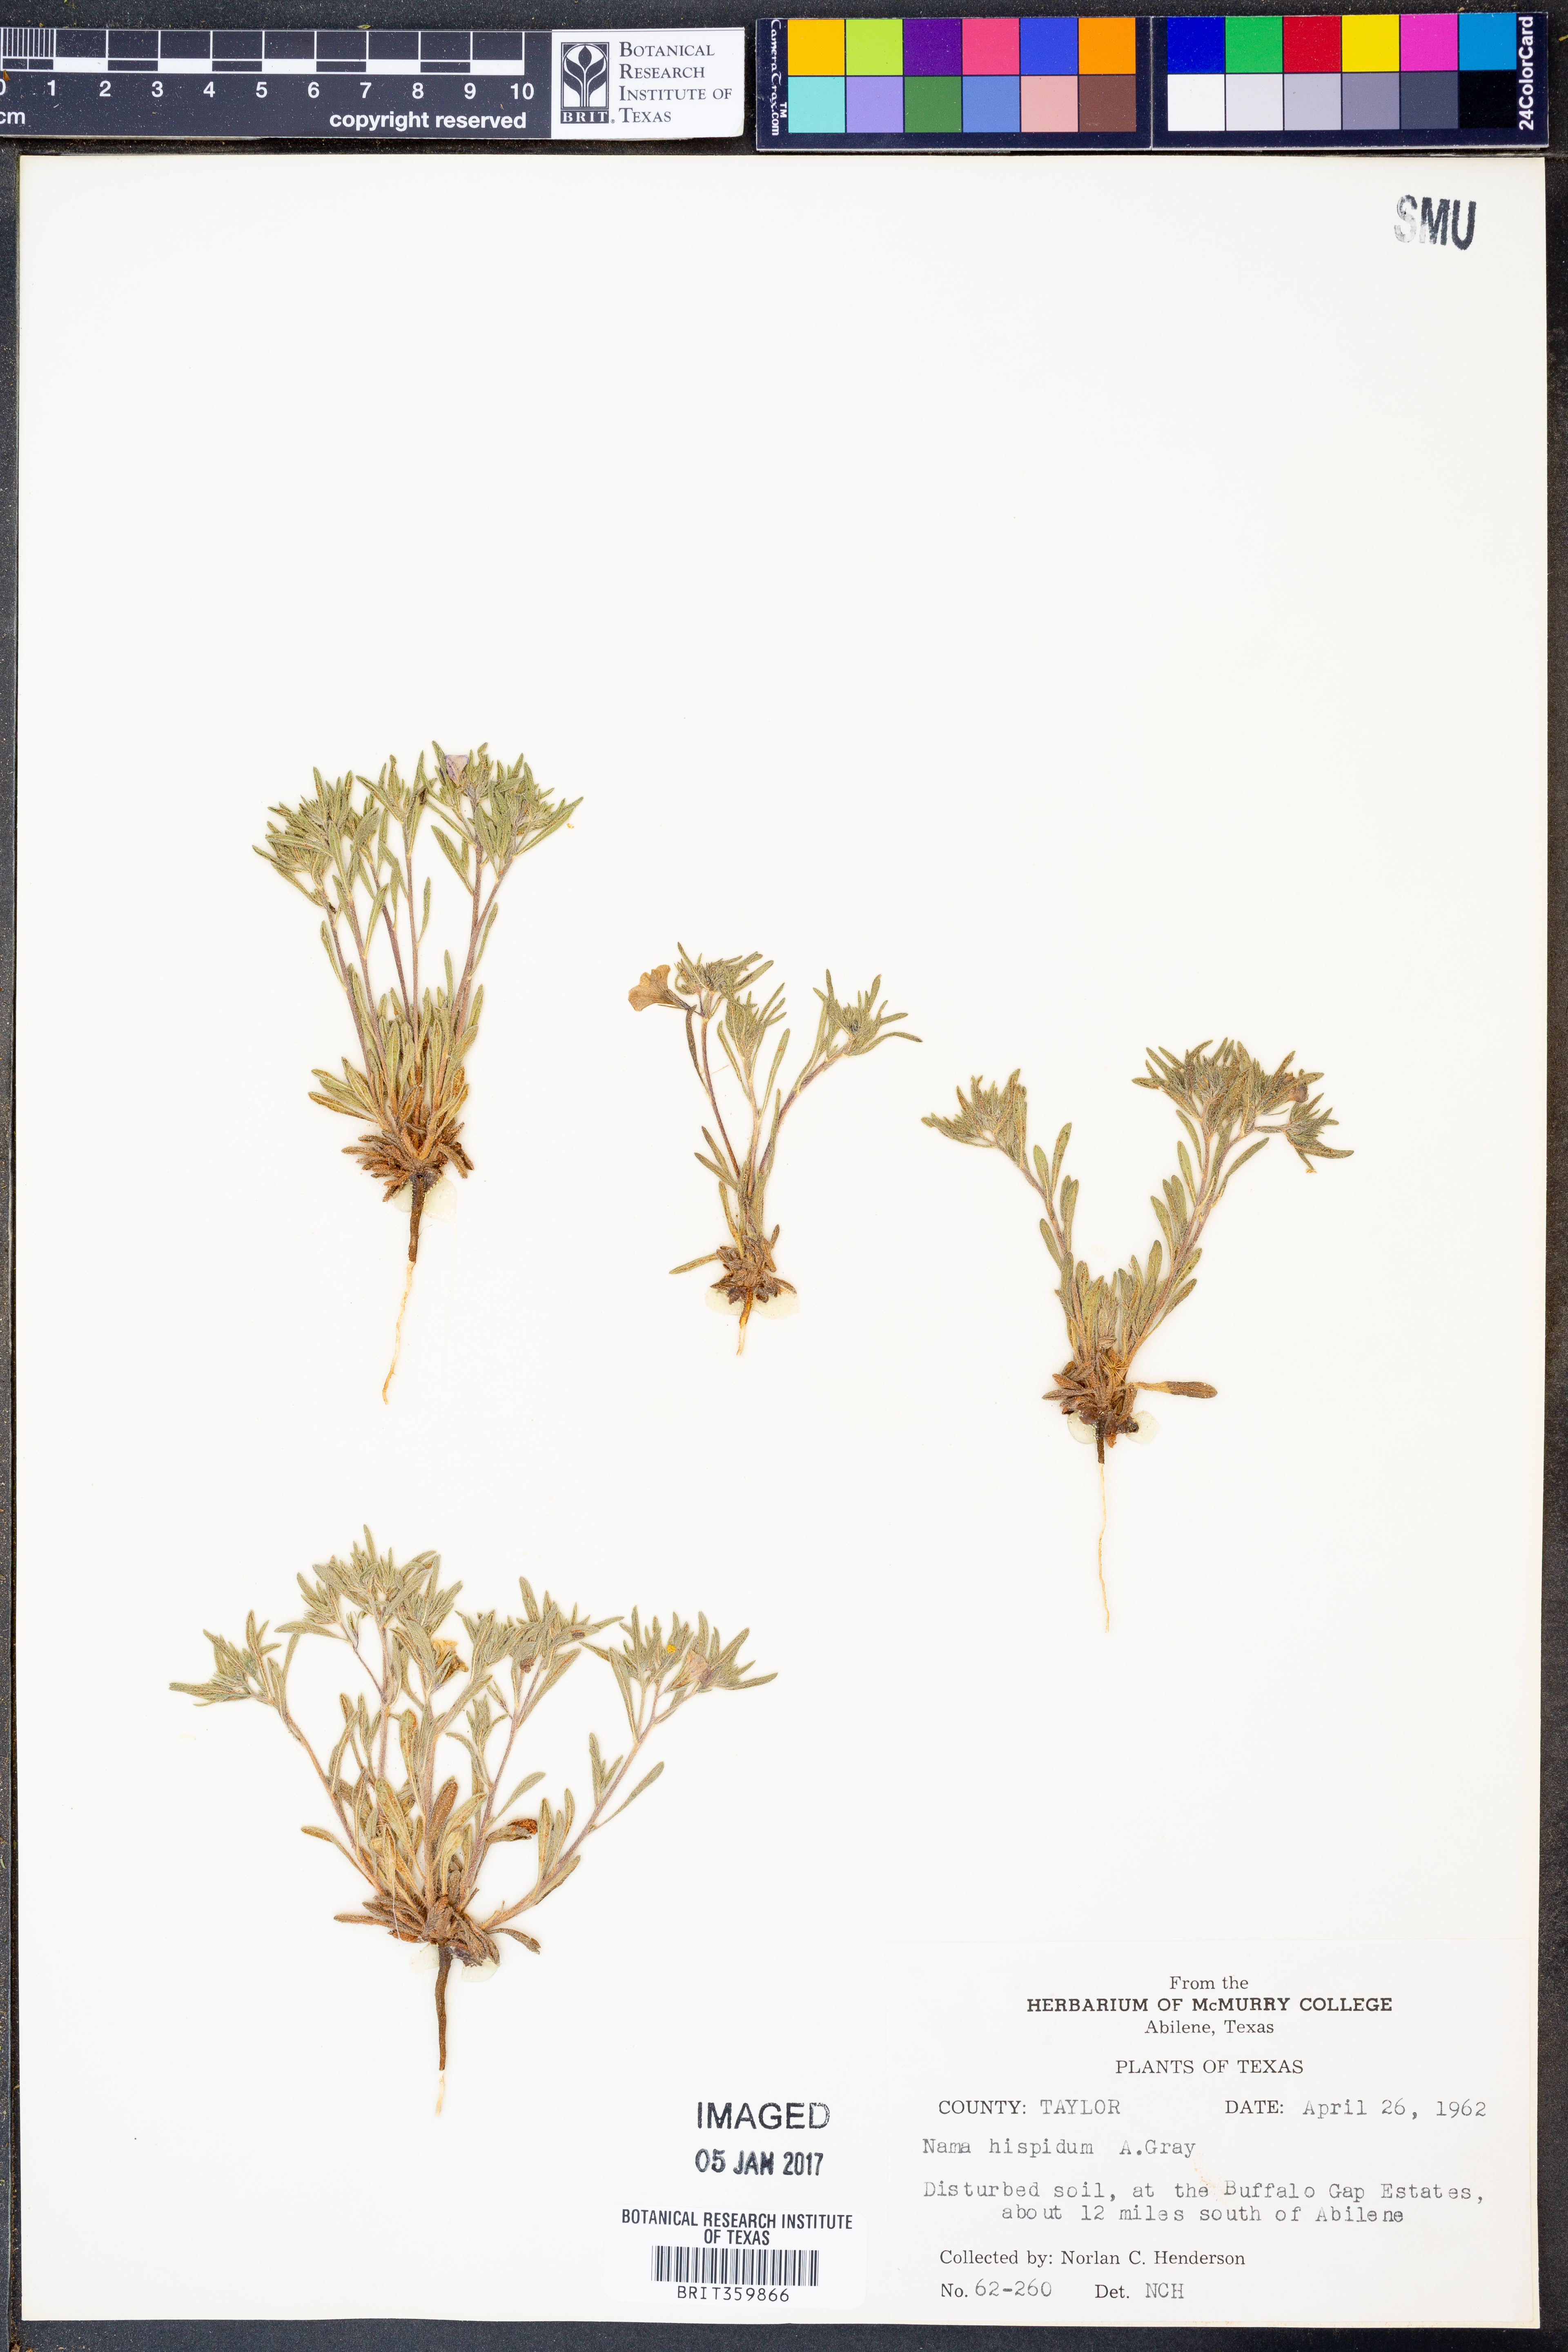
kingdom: Plantae
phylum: Tracheophyta
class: Magnoliopsida
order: Boraginales
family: Namaceae
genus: Nama
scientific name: Nama hispida
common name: Bristly nama
